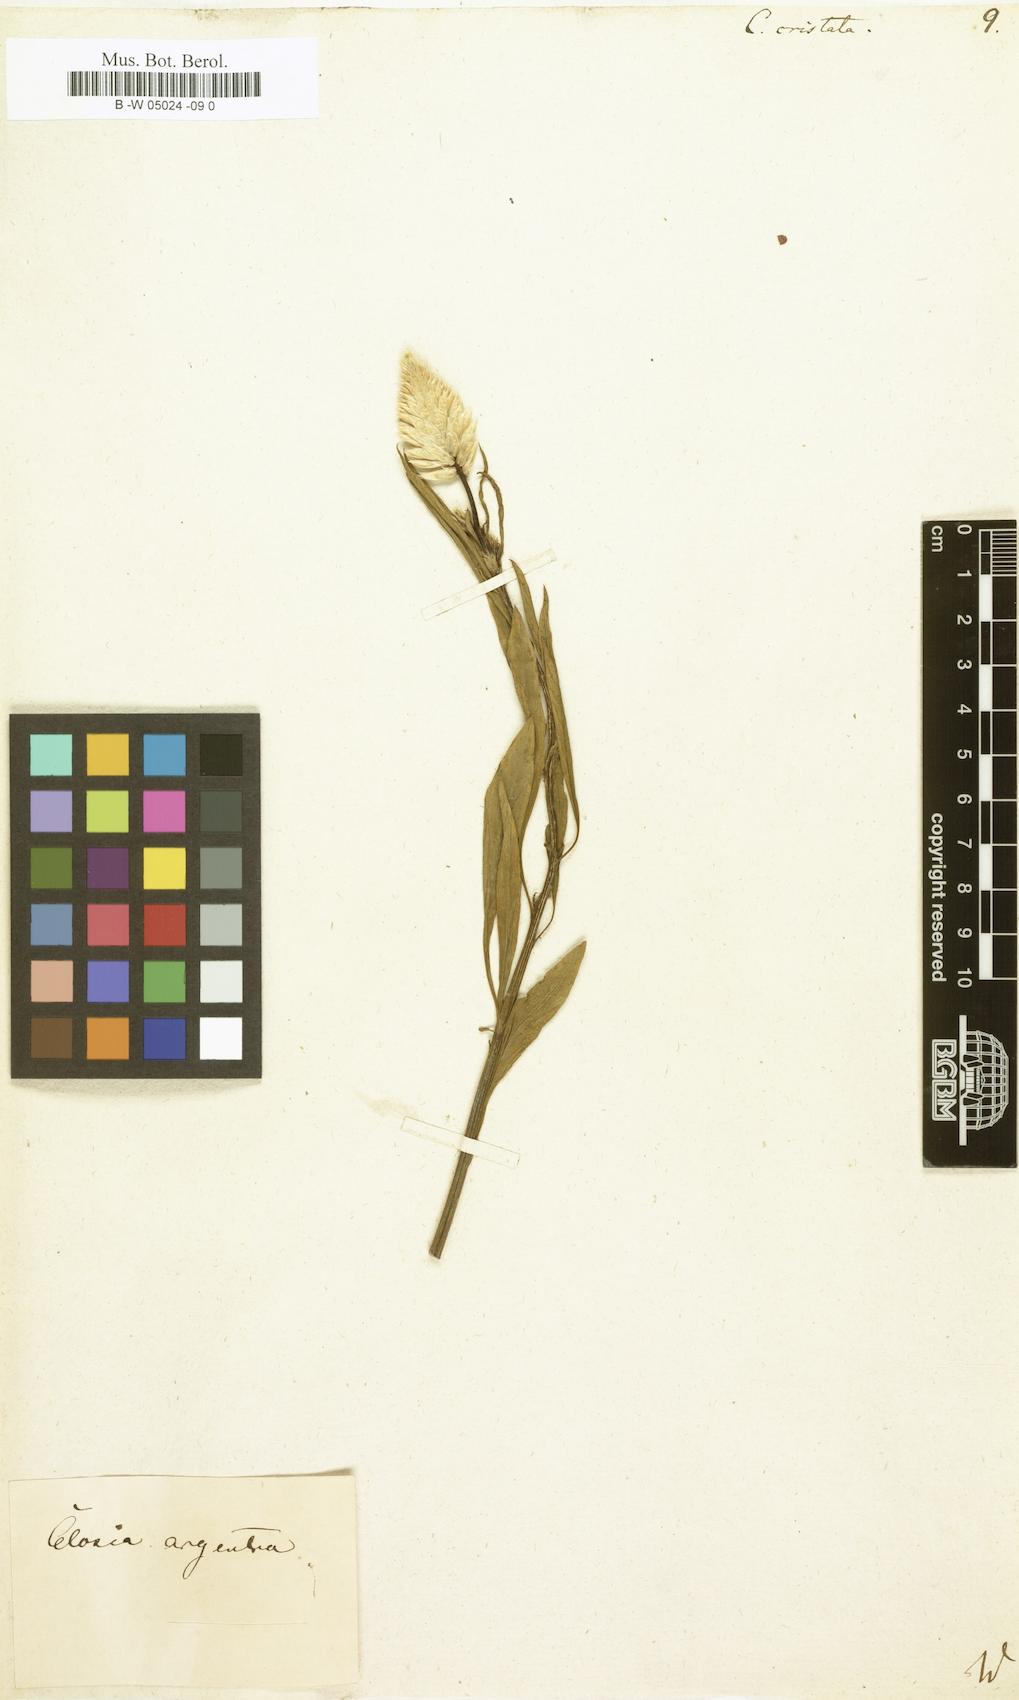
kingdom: Plantae
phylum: Tracheophyta
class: Magnoliopsida
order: Caryophyllales
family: Amaranthaceae
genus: Celosia
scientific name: Celosia argentea
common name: Feather cockscomb
